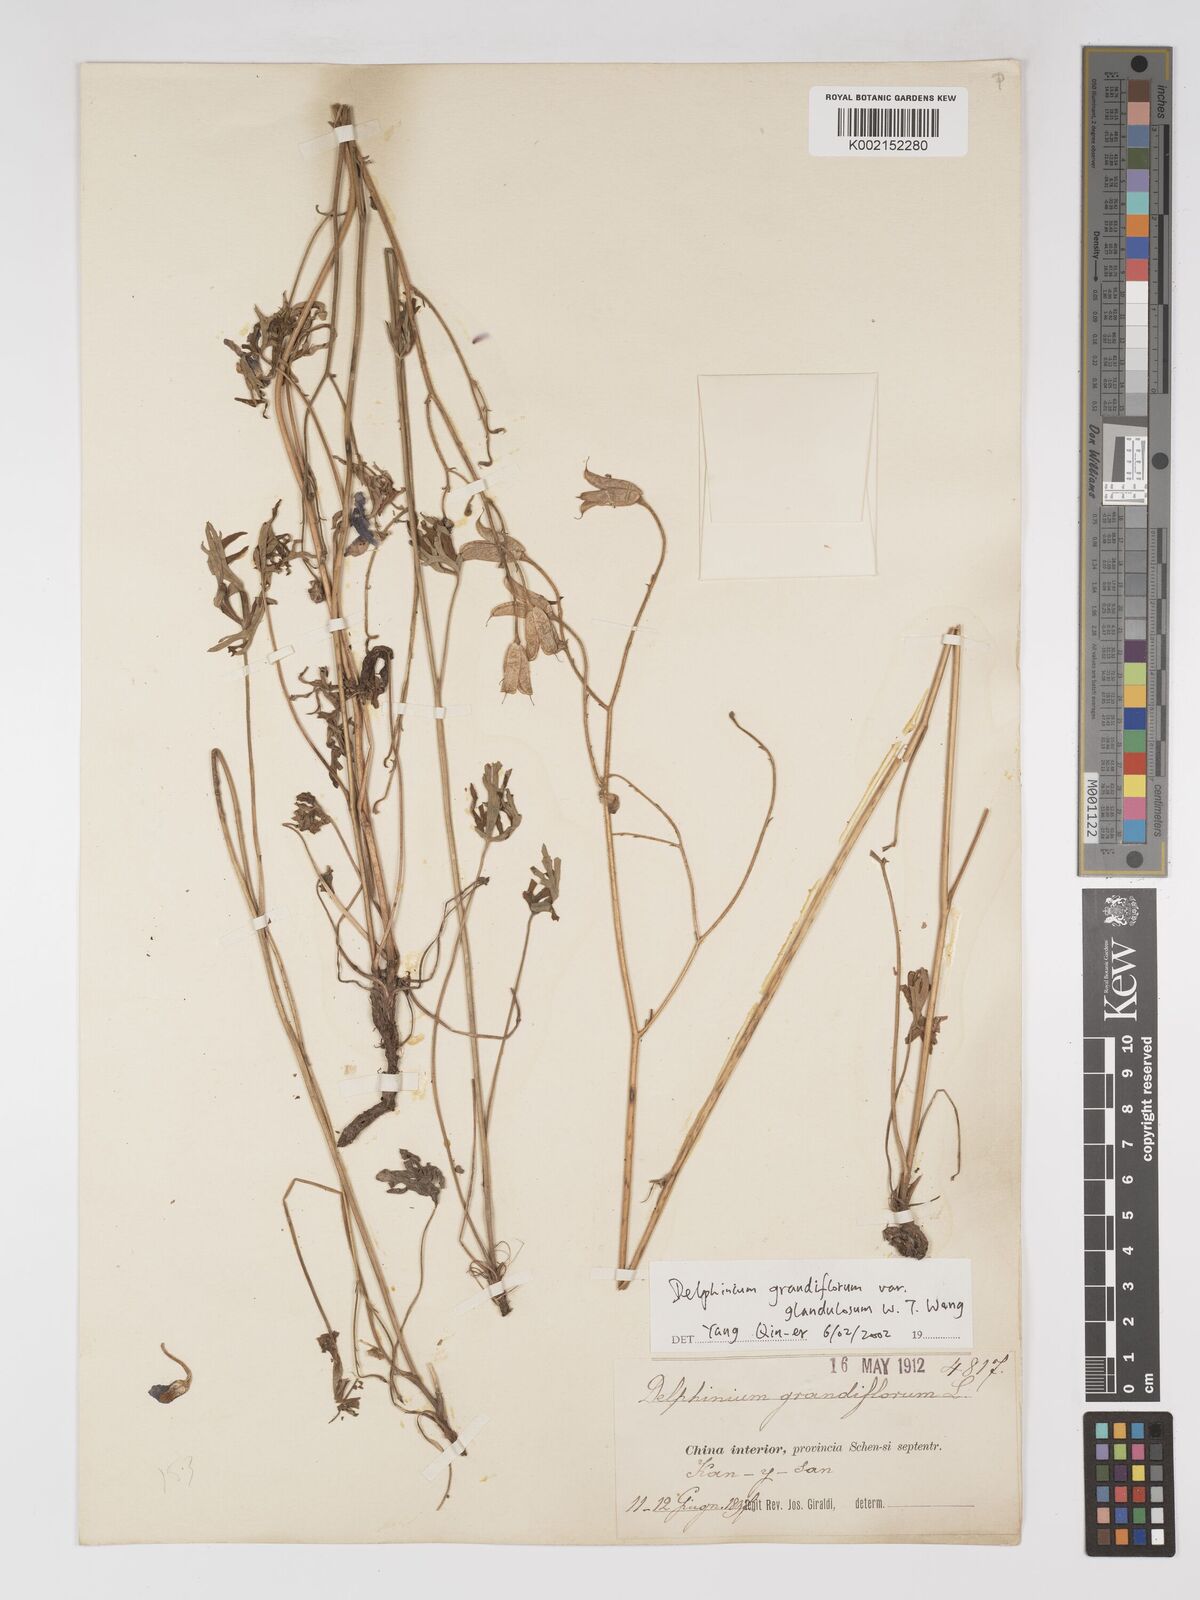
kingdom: Plantae
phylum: Tracheophyta
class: Magnoliopsida
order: Ranunculales
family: Ranunculaceae
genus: Delphinium
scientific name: Delphinium grandiflorum
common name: Siberian larkspur
